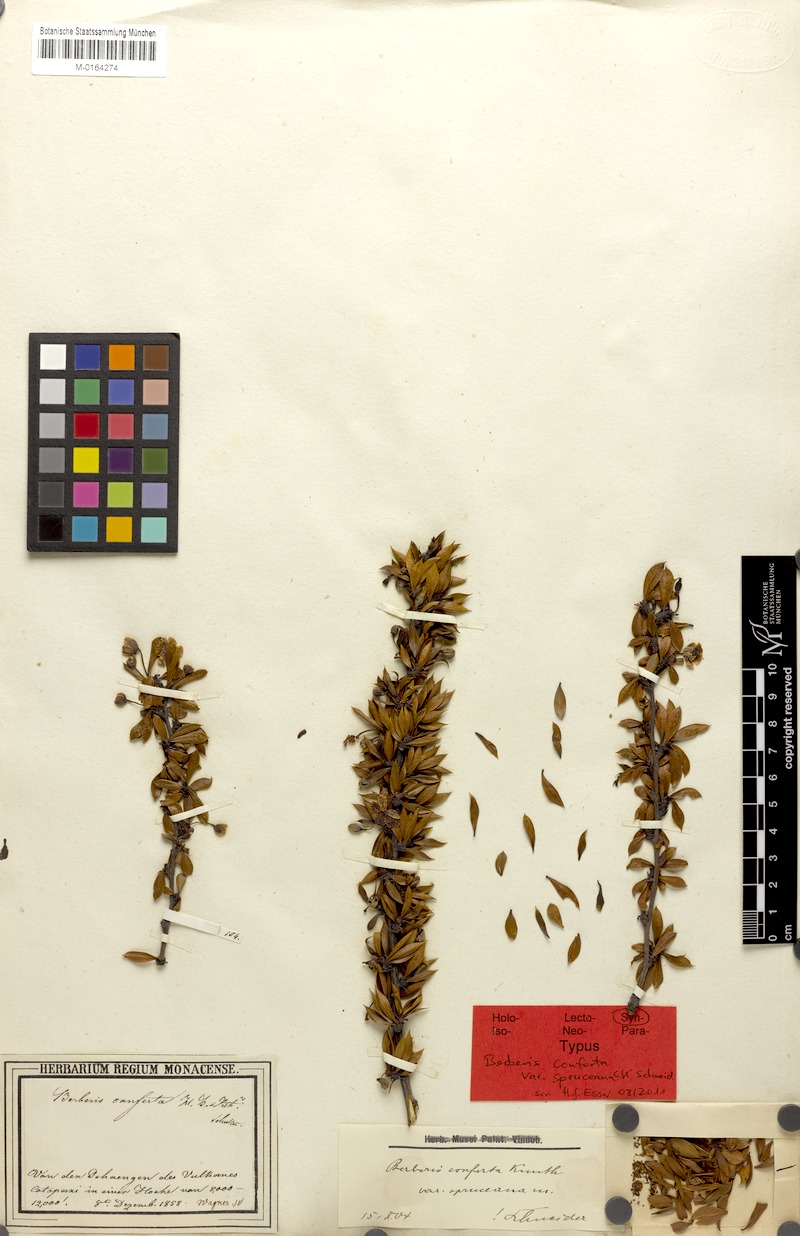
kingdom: Plantae
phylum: Tracheophyta
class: Magnoliopsida
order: Ranunculales
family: Berberidaceae
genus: Berberis
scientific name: Berberis lutea
